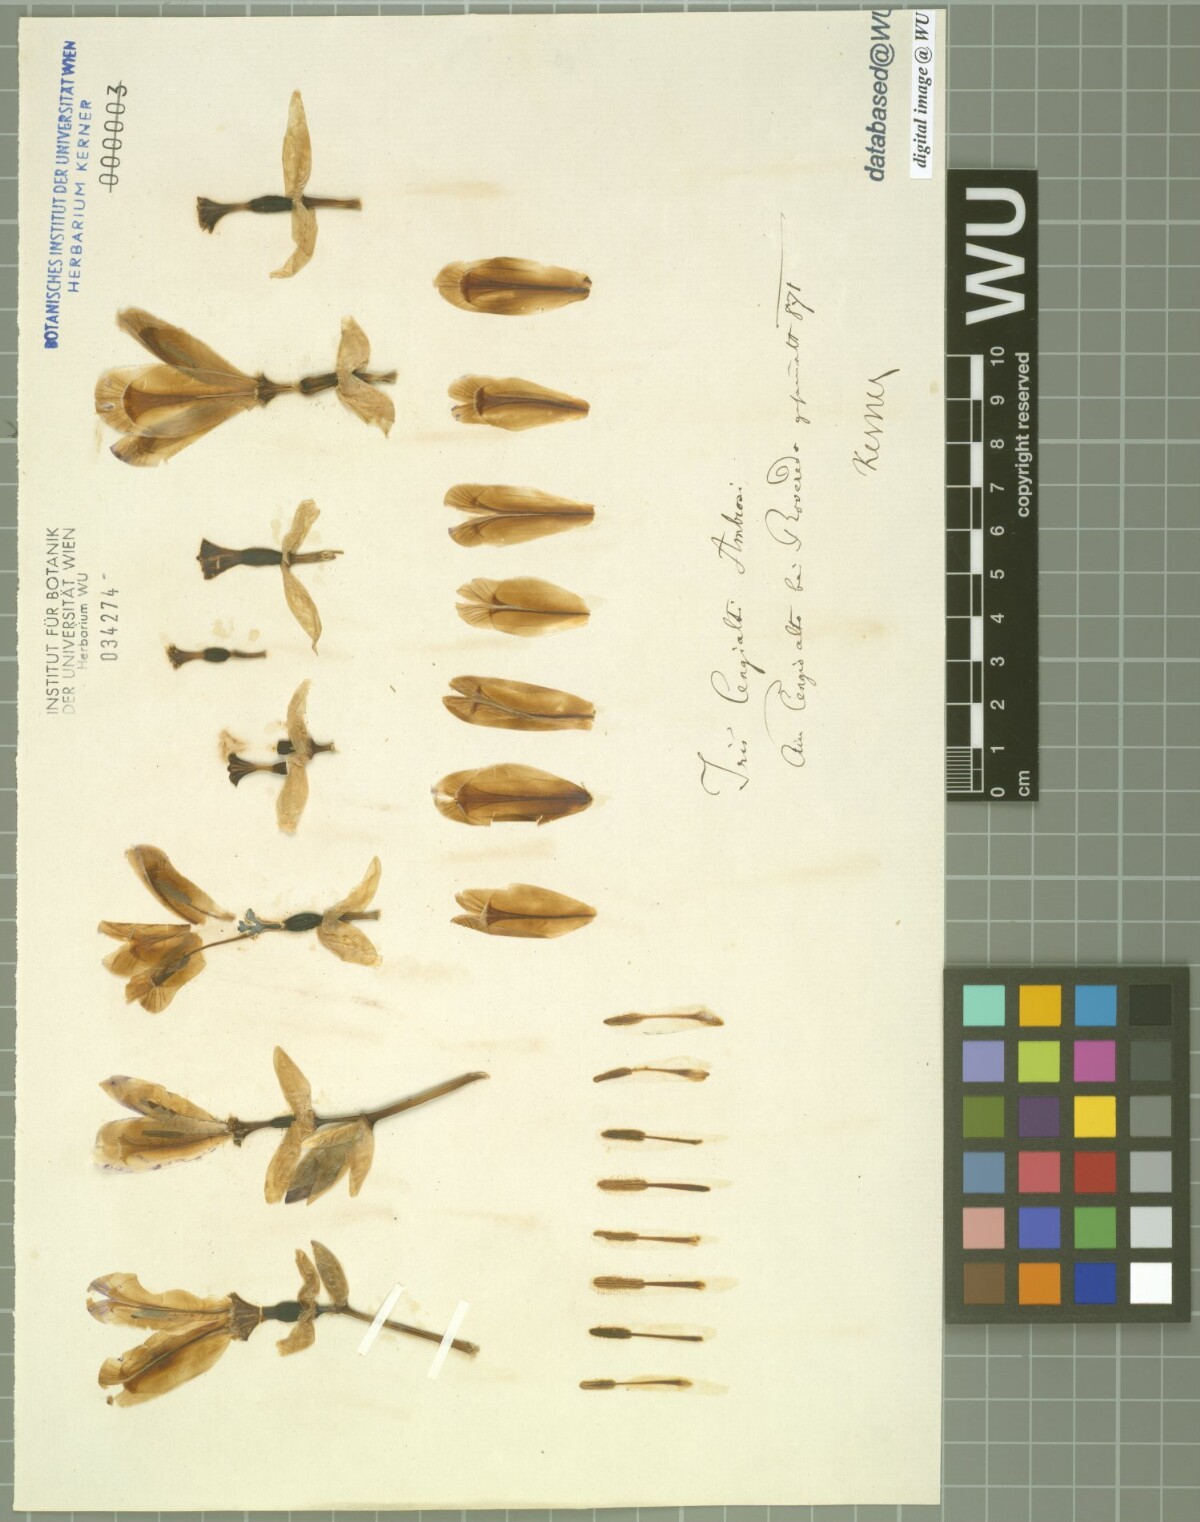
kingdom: Plantae
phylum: Tracheophyta
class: Liliopsida
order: Asparagales
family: Iridaceae
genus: Iris
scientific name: Iris pallida
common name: Sweet iris
